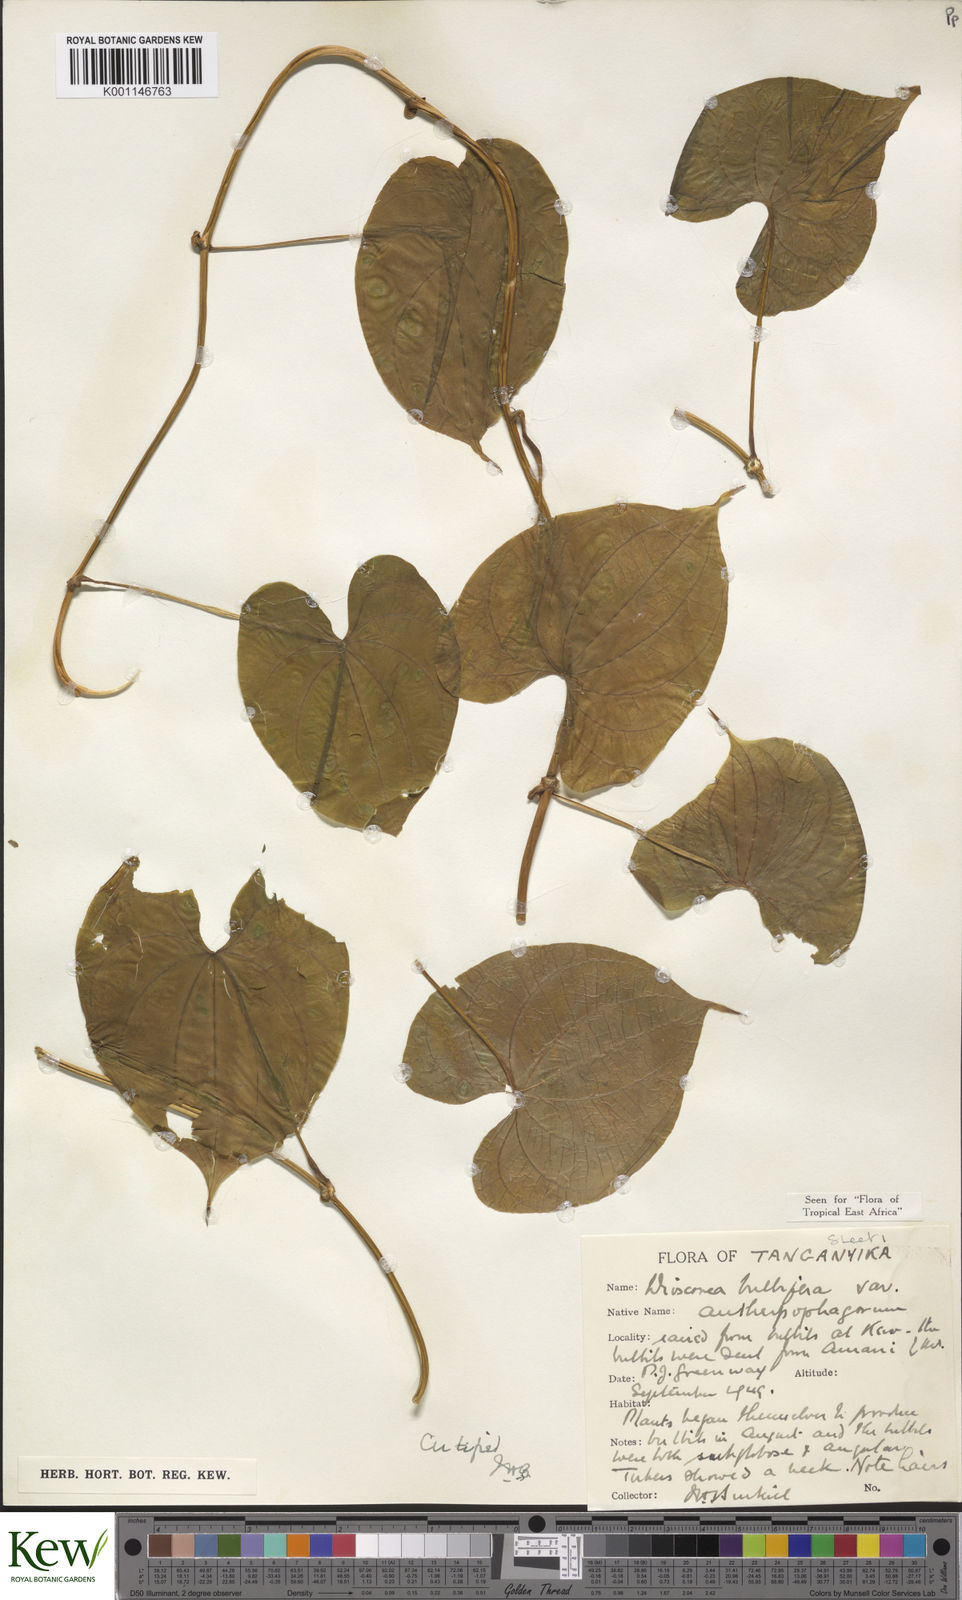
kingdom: Plantae
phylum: Tracheophyta
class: Liliopsida
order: Dioscoreales
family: Dioscoreaceae
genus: Dioscorea
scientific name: Dioscorea bulbifera
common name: Air yam
